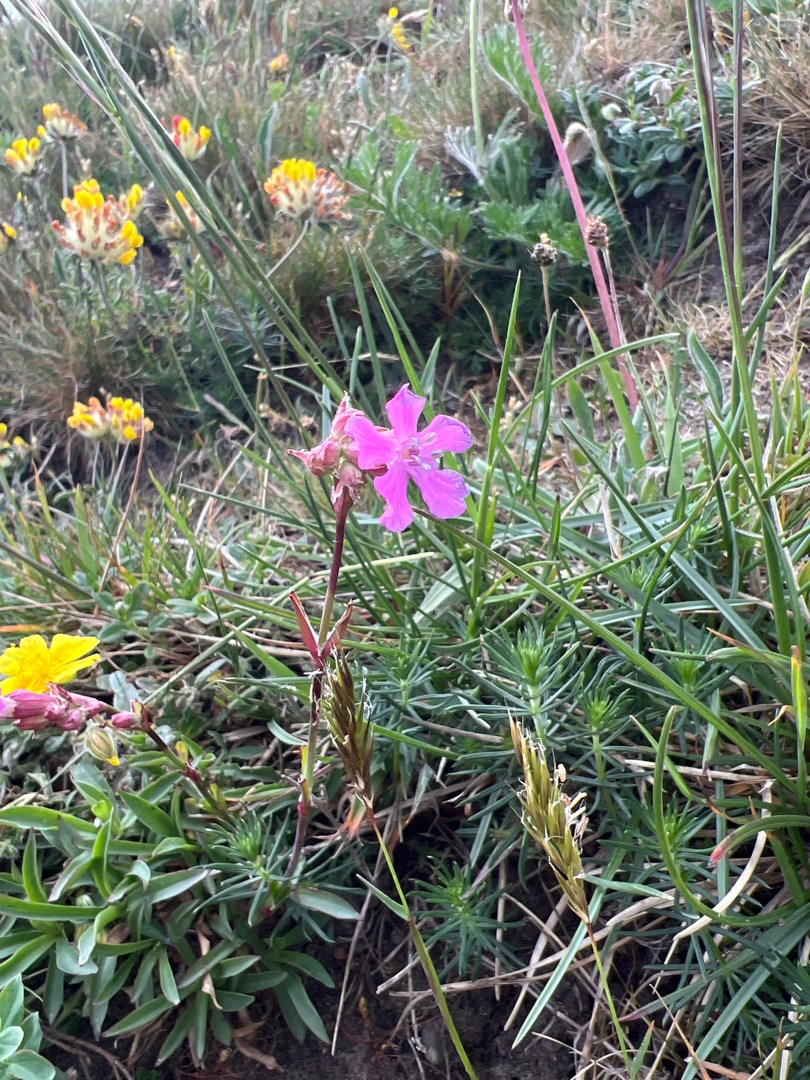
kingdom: Plantae
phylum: Tracheophyta
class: Magnoliopsida
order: Caryophyllales
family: Caryophyllaceae
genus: Viscaria
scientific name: Viscaria vulgaris
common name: Tjærenellike
